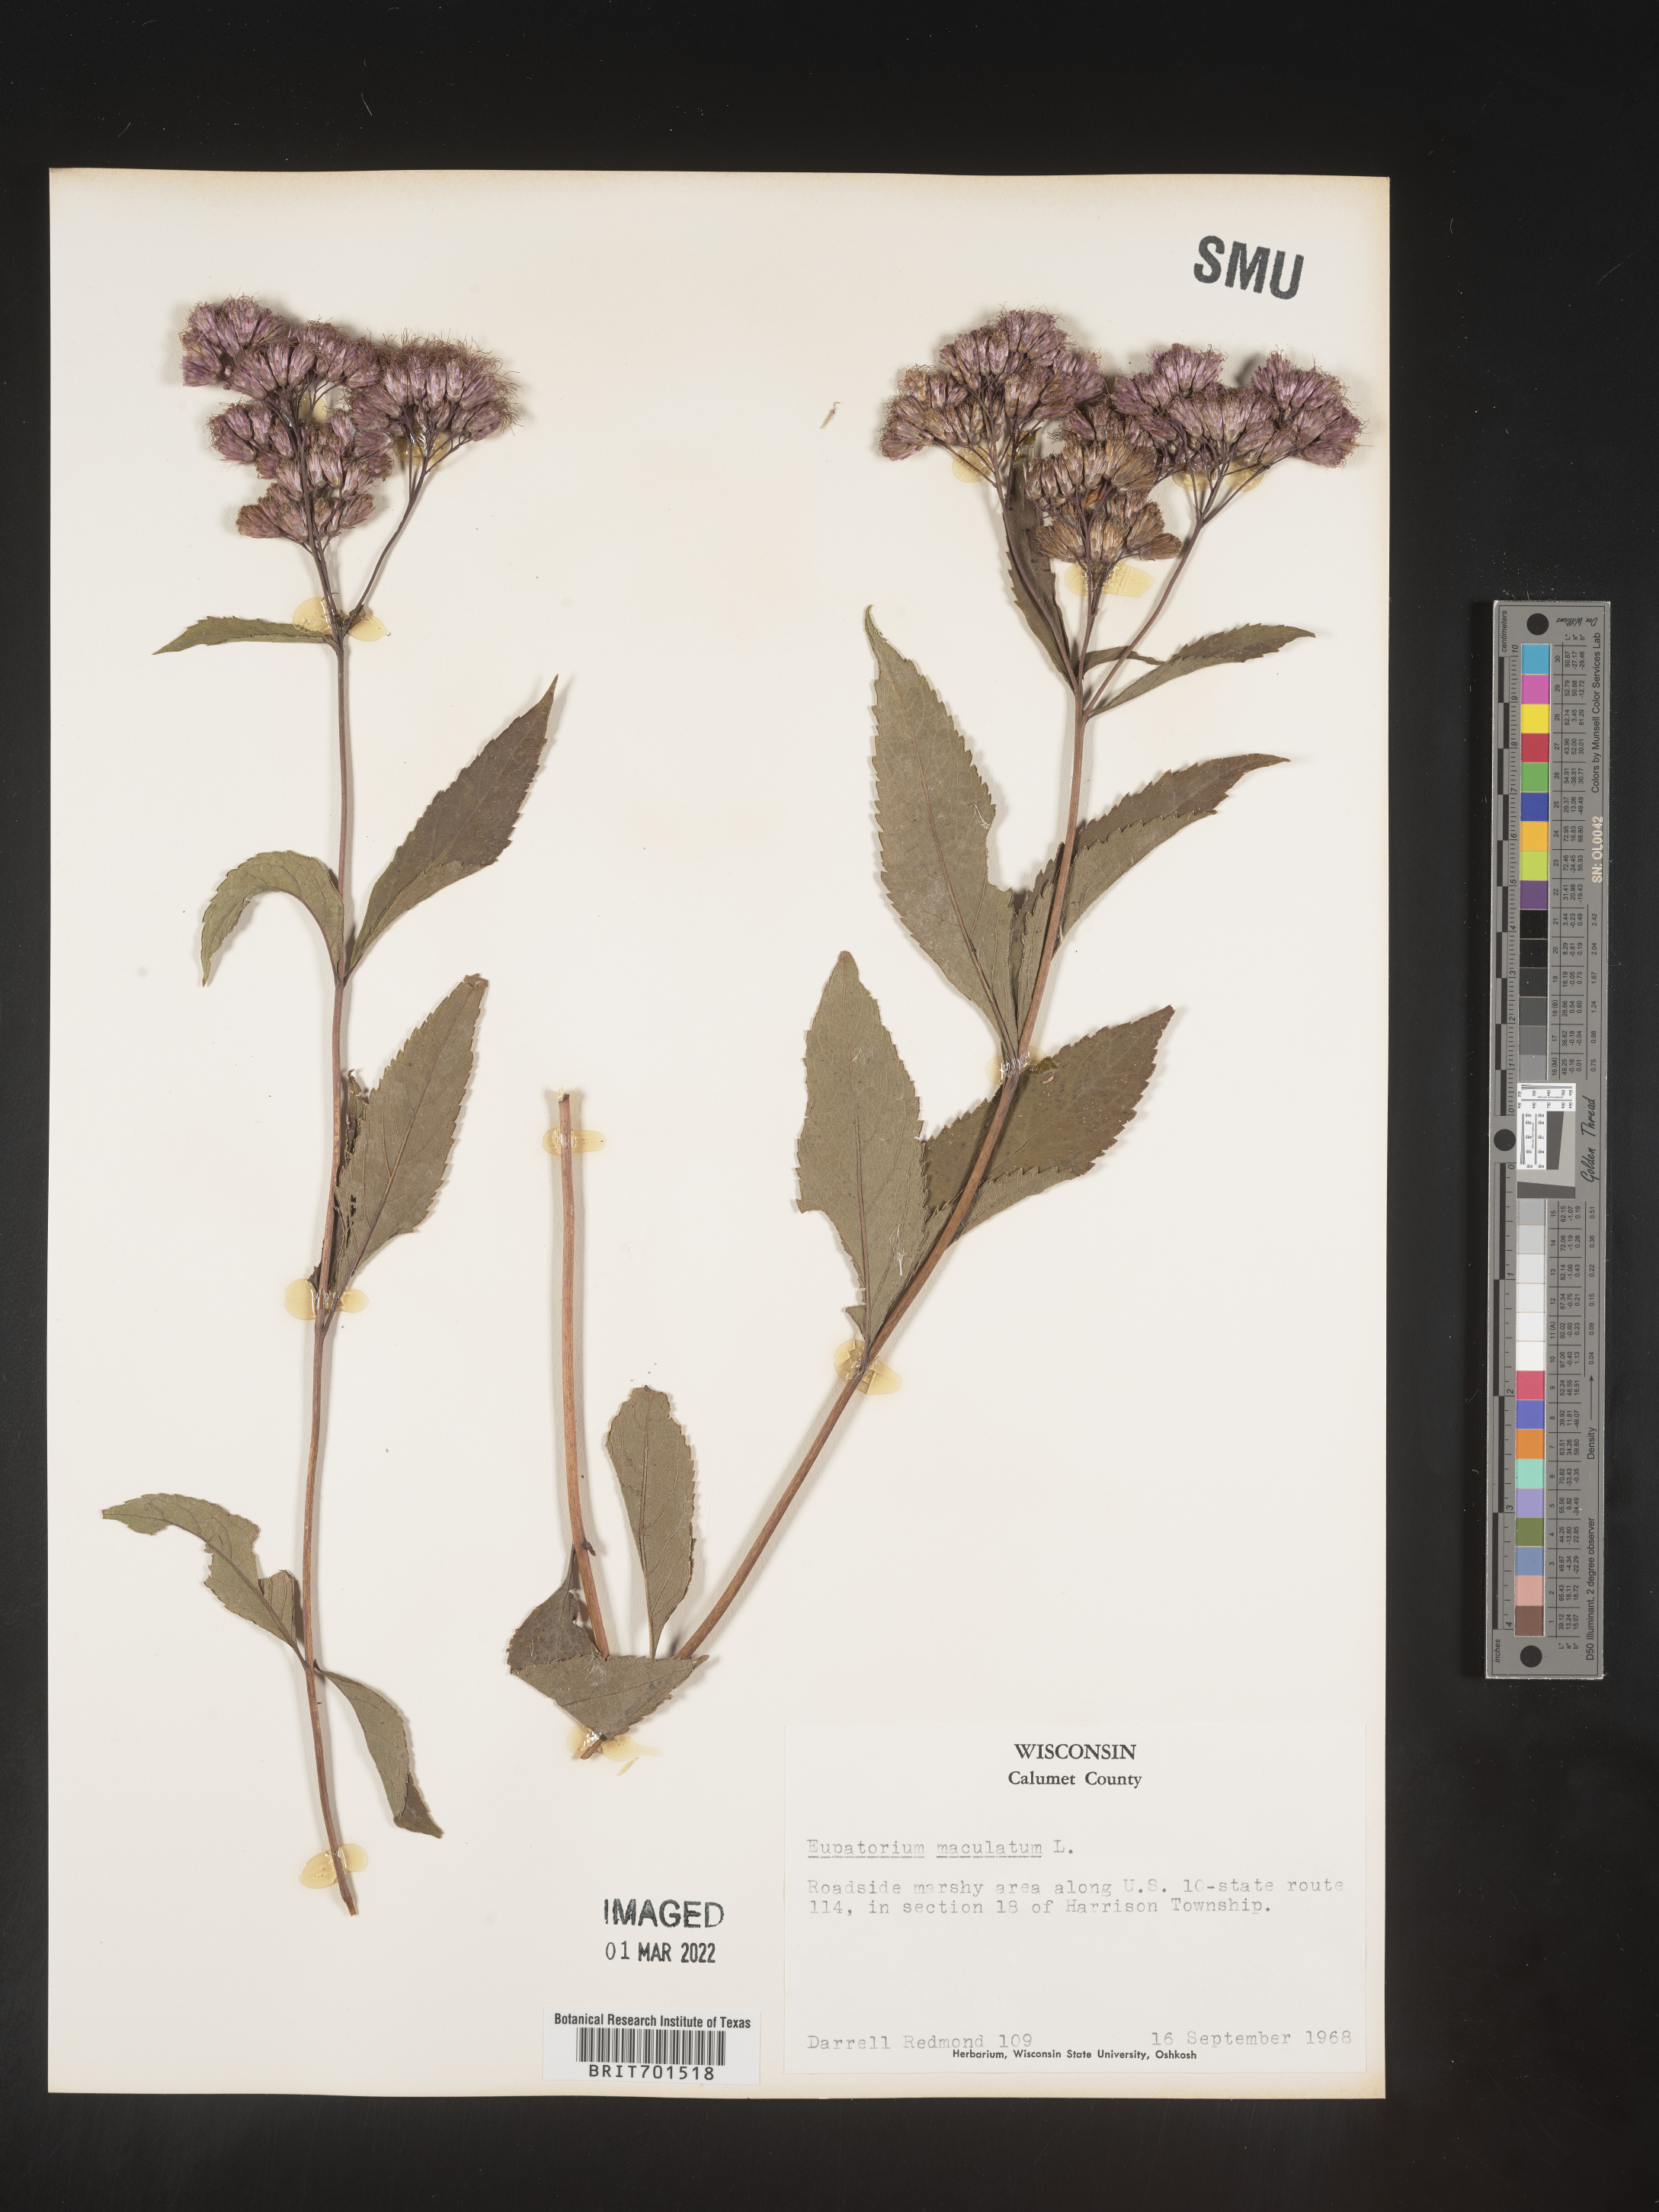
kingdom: Plantae
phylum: Tracheophyta
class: Magnoliopsida
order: Asterales
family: Asteraceae
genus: Eutrochium
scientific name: Eutrochium maculatum
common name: Spotted joe pye weed
